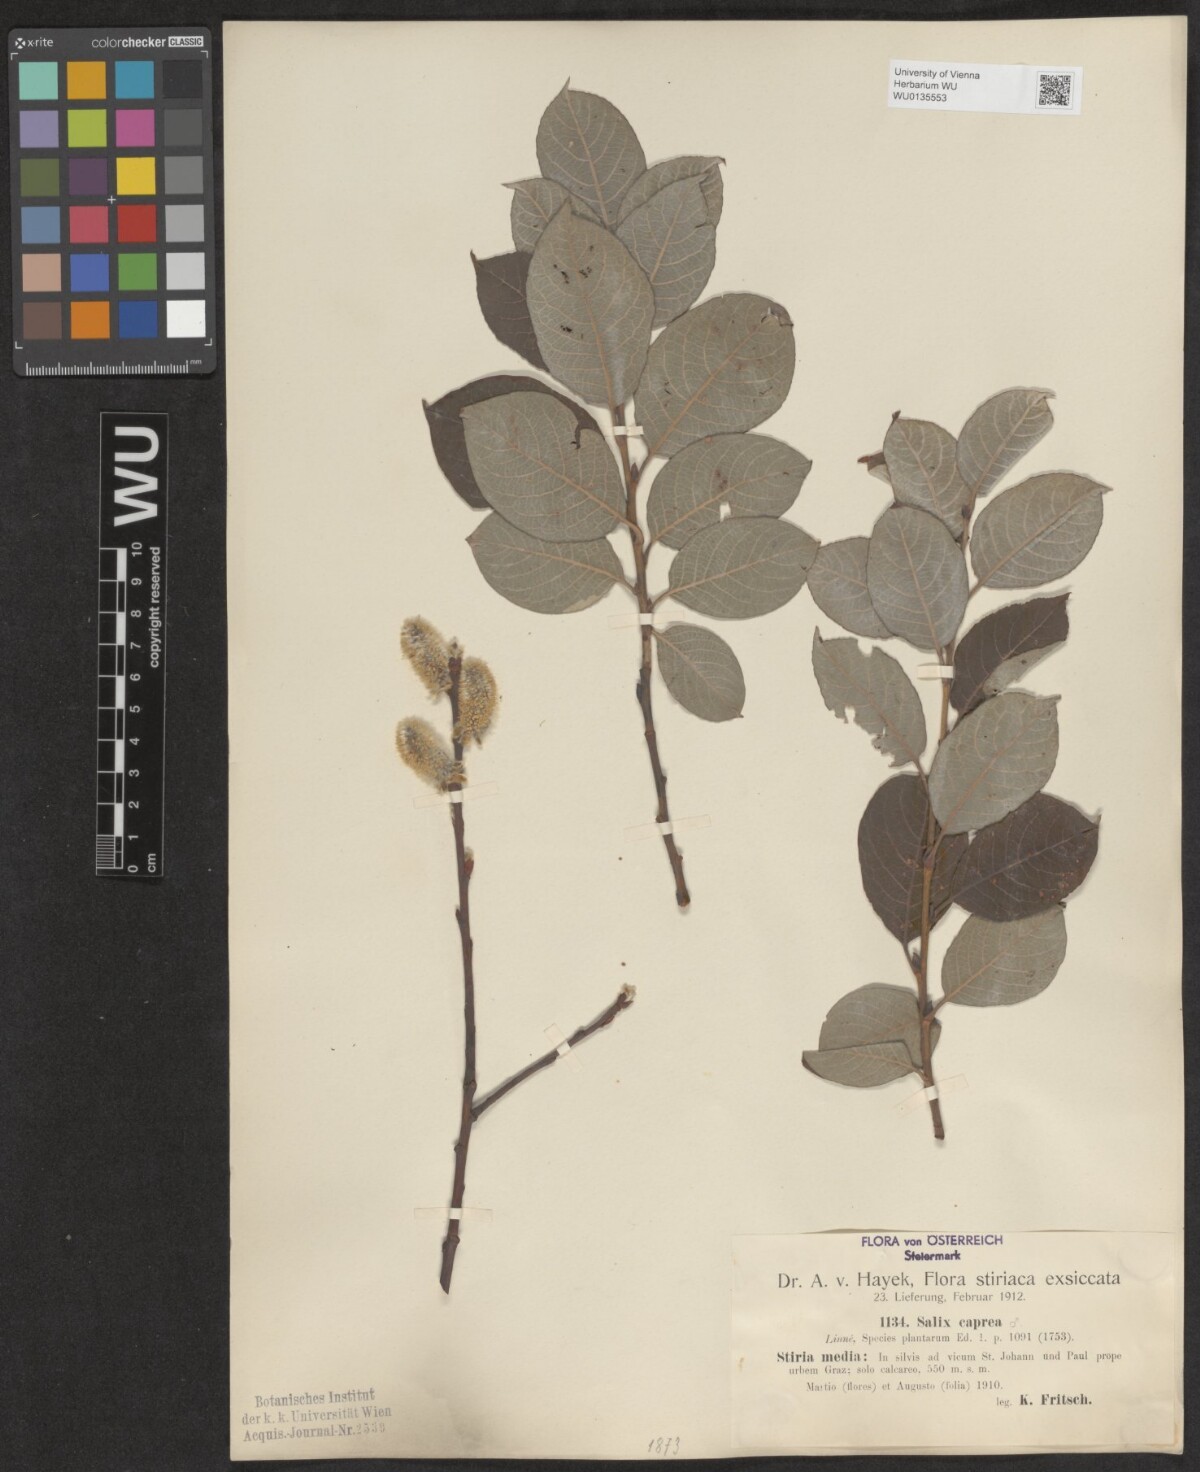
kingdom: Plantae
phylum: Tracheophyta
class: Magnoliopsida
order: Malpighiales
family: Salicaceae
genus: Salix
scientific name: Salix caprea
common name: Goat willow
